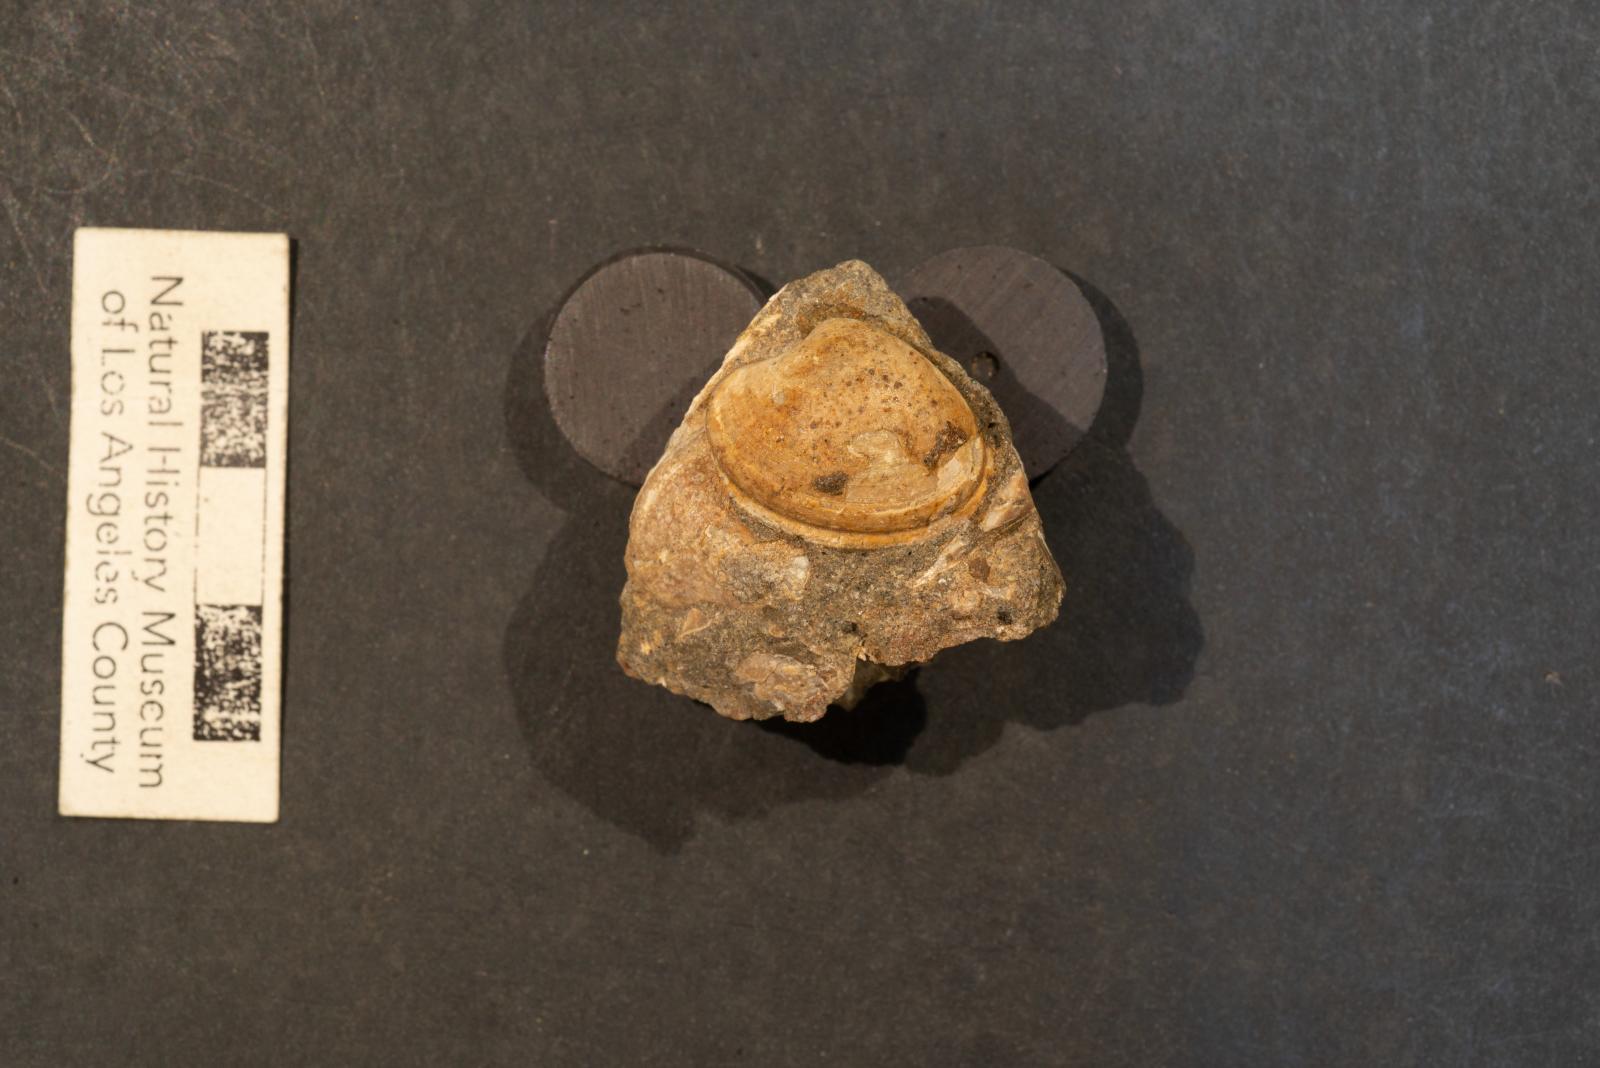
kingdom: Animalia
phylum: Mollusca
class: Bivalvia
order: Venerida
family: Veneridae
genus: Calva
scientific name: Calva elderi
